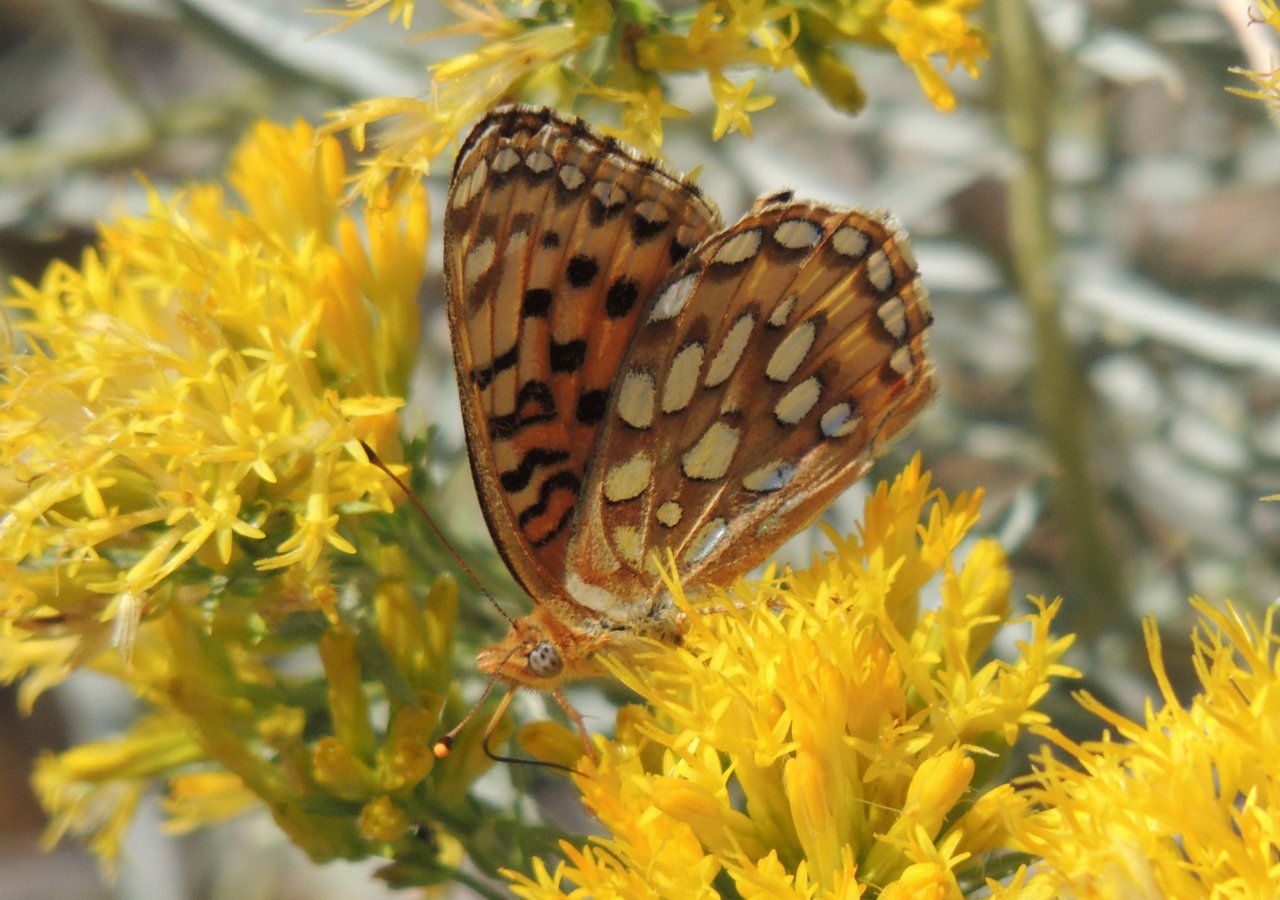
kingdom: Animalia
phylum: Arthropoda
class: Insecta
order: Lepidoptera
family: Nymphalidae
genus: Speyeria
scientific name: Speyeria zerene
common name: Zerene Fritillary
